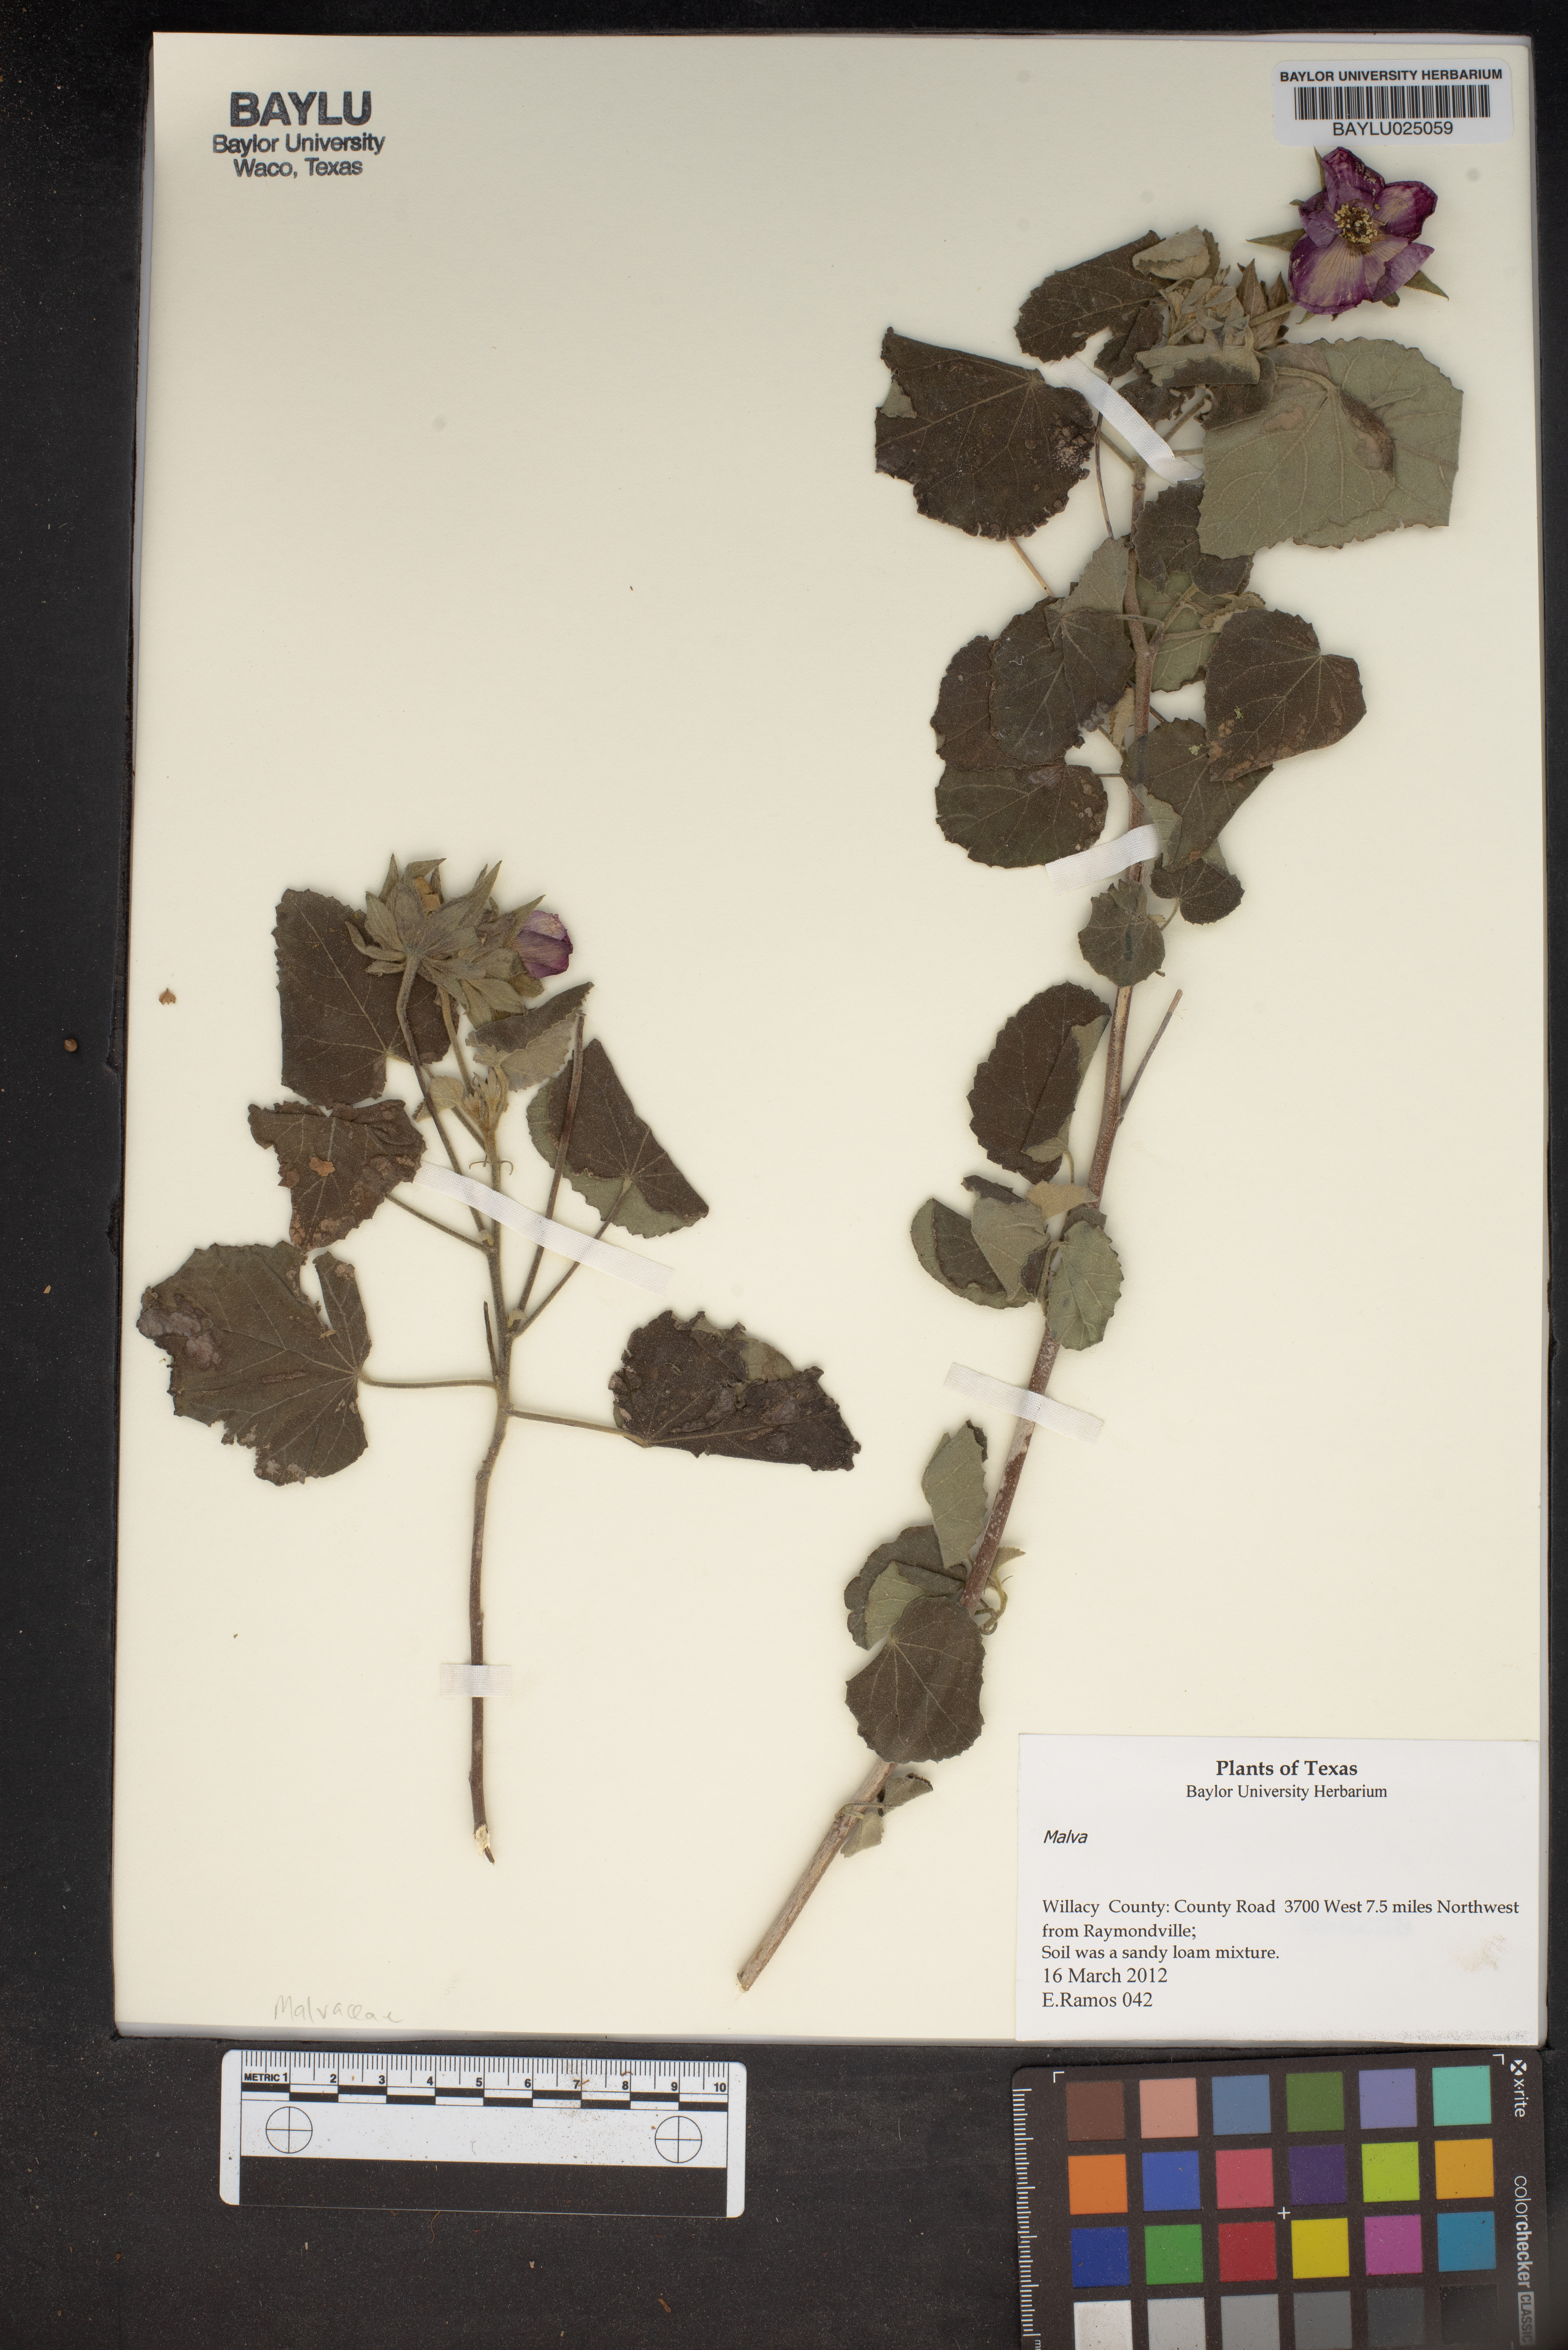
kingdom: Plantae
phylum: Tracheophyta
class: Magnoliopsida
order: Malvales
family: Malvaceae
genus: Malva
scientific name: Malva
